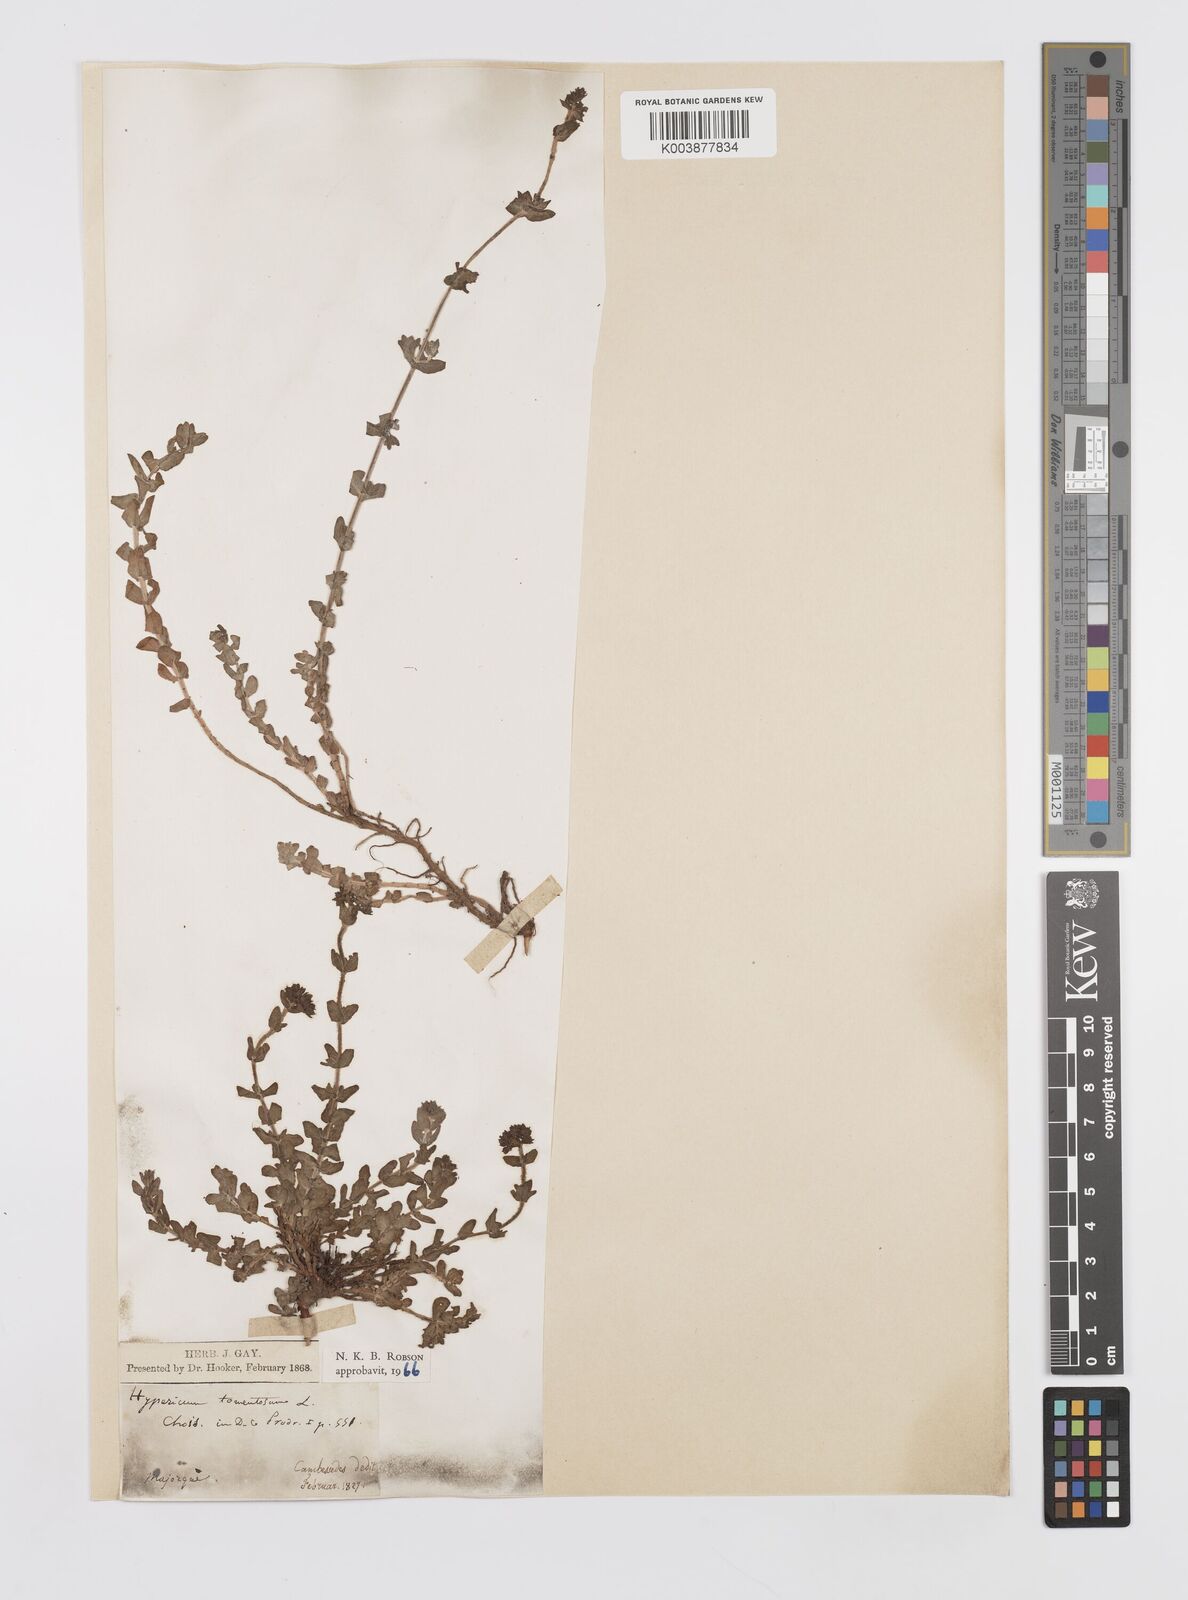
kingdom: Plantae
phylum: Tracheophyta
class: Magnoliopsida
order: Malpighiales
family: Hypericaceae
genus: Hypericum
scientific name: Hypericum tomentosum
